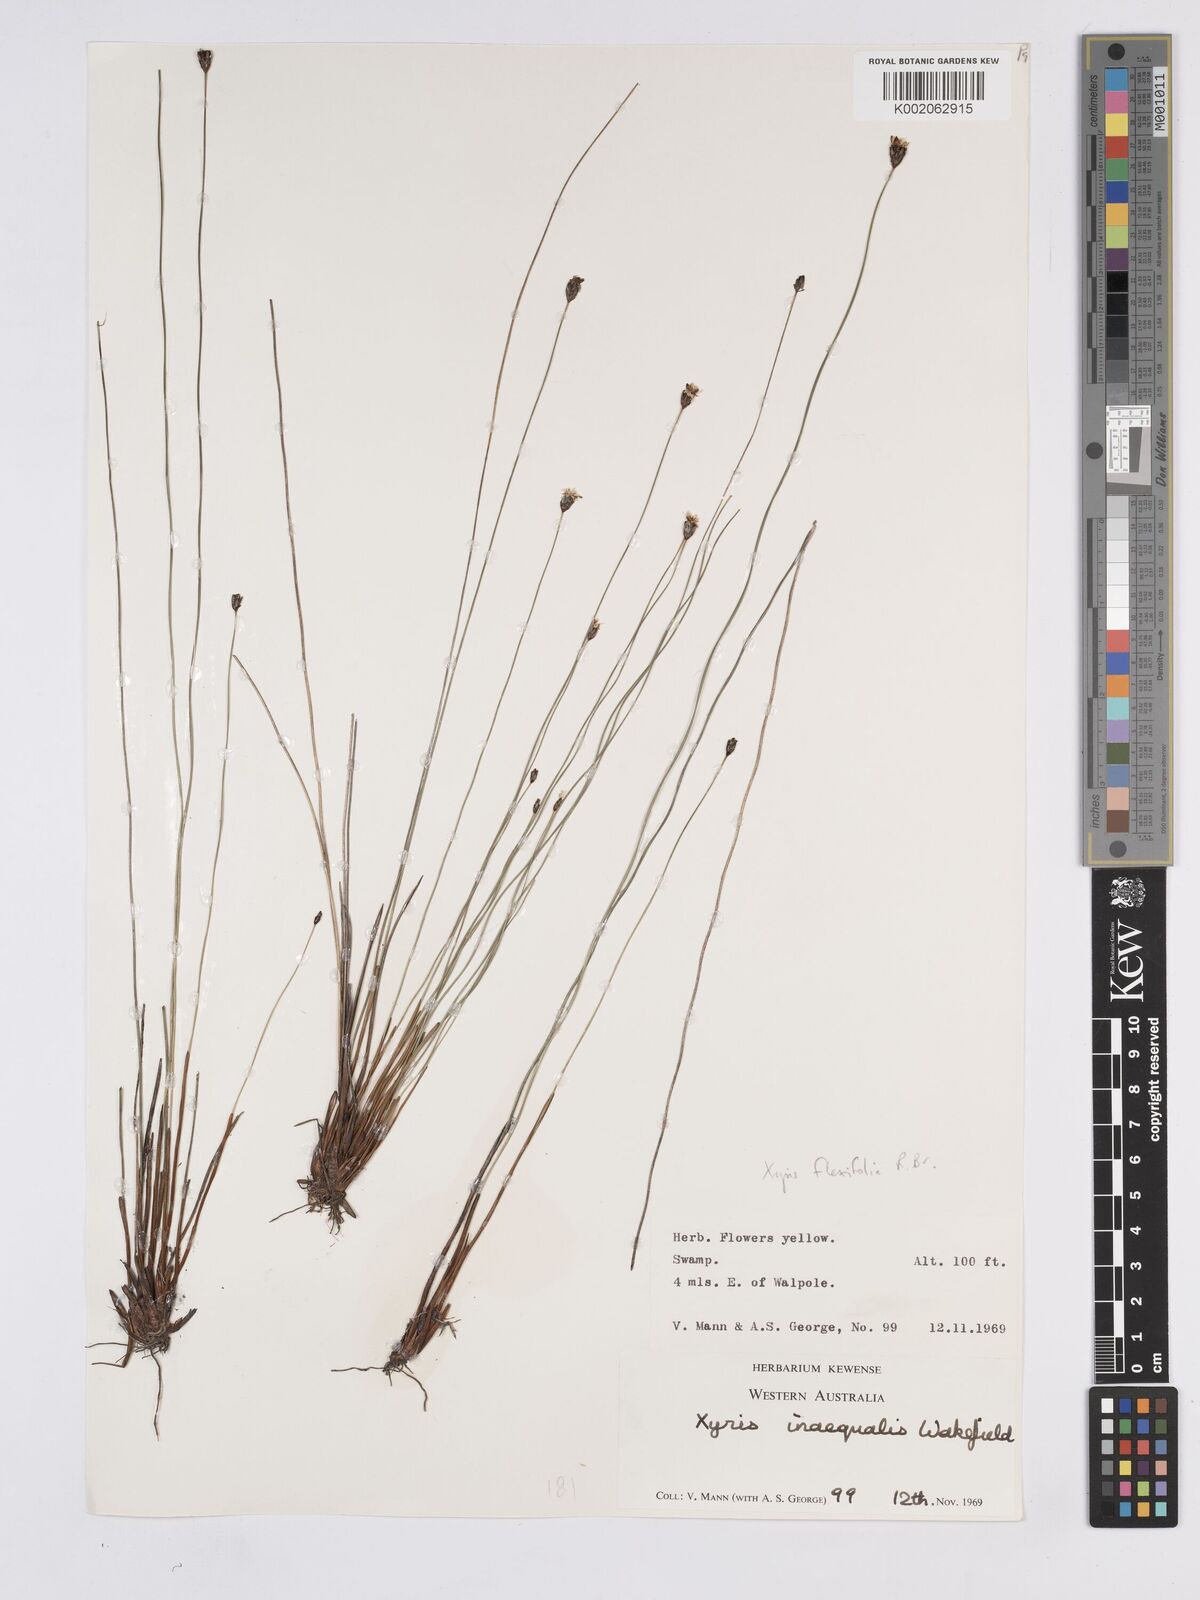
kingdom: Plantae
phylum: Tracheophyta
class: Liliopsida
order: Poales
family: Xyridaceae
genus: Xyris
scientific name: Xyris inaequalis
